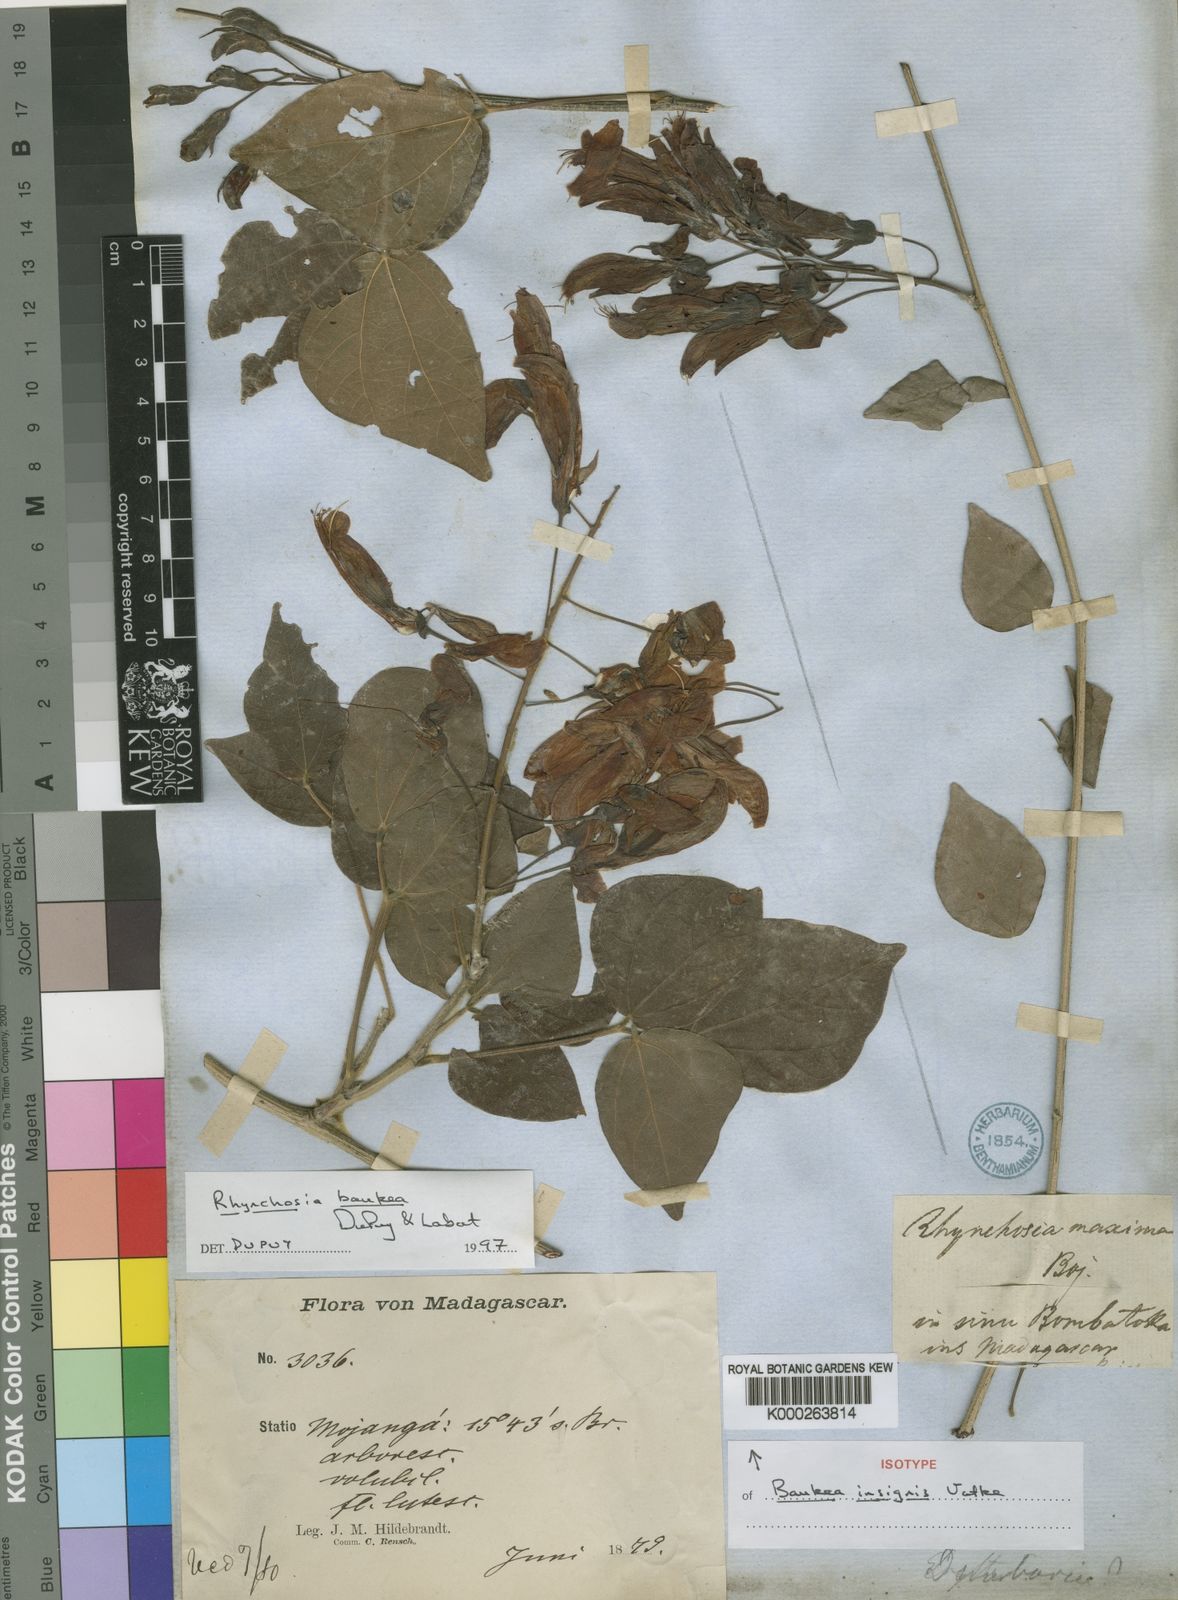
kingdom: Plantae
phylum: Tracheophyta
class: Magnoliopsida
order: Fabales
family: Fabaceae
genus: Rhynchosia
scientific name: Rhynchosia baukea
